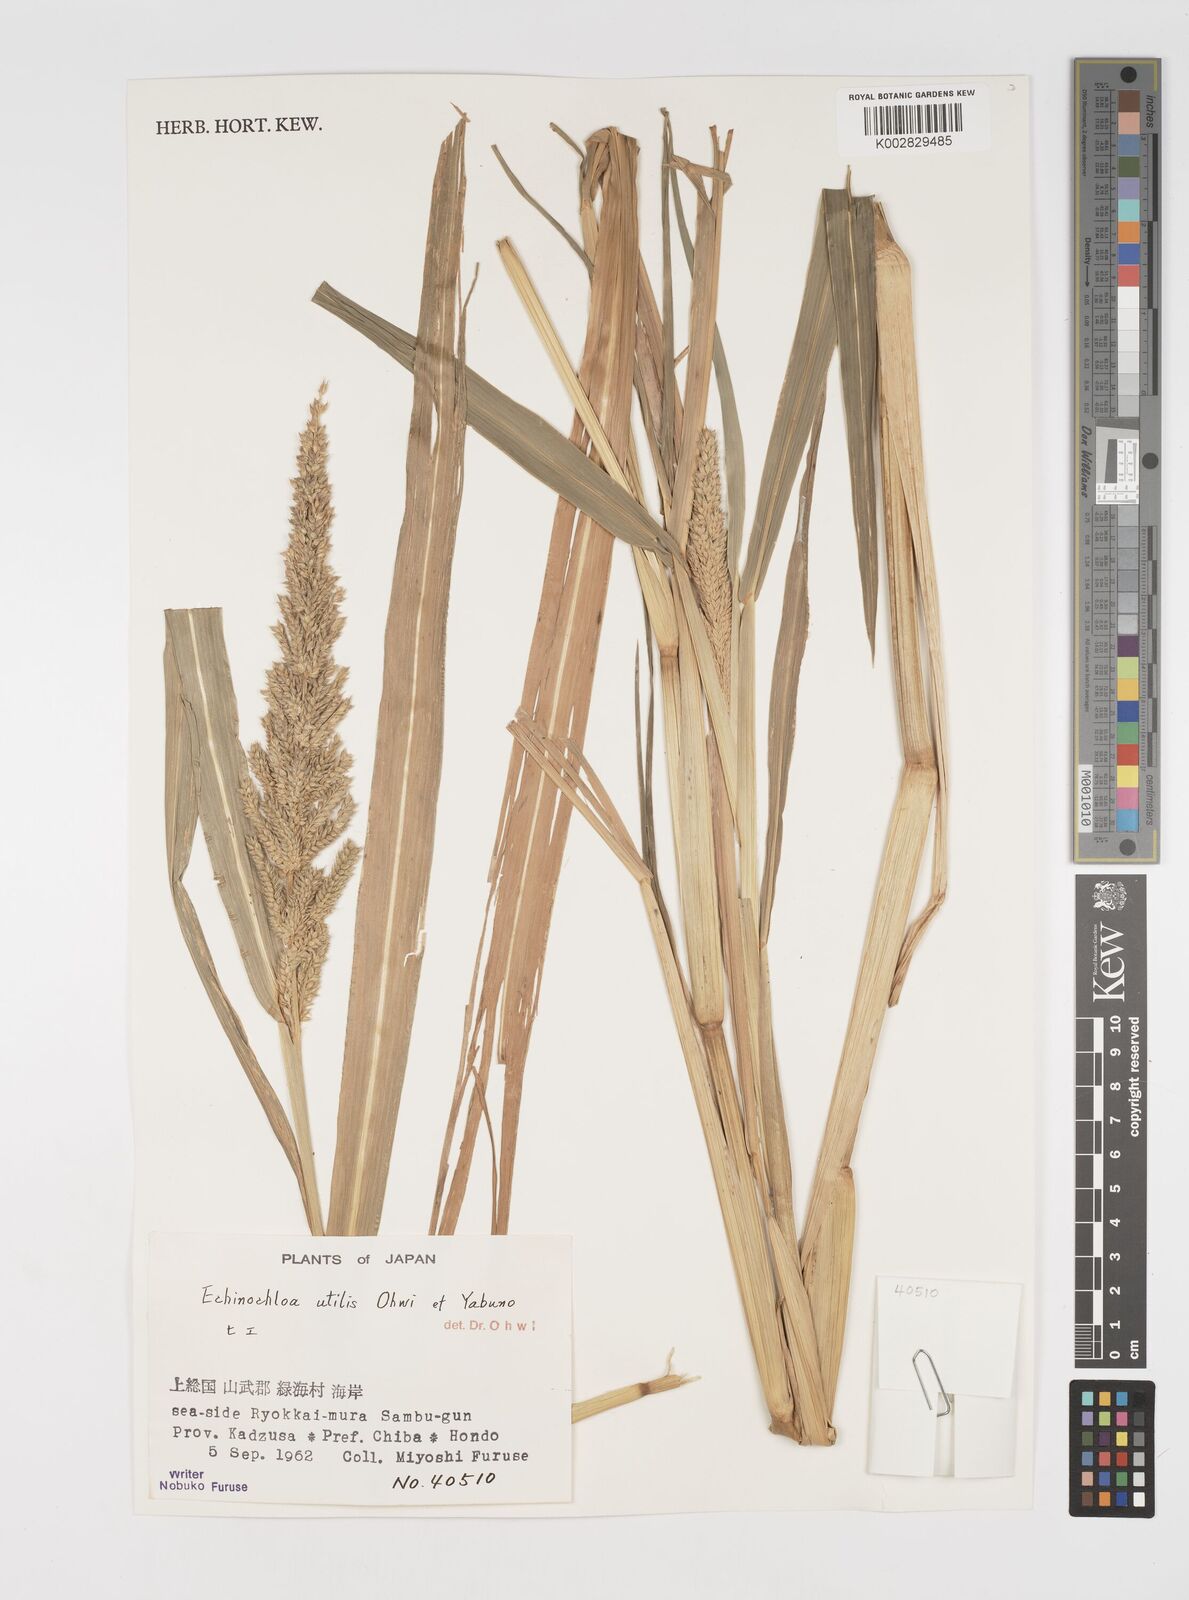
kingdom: Plantae
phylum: Tracheophyta
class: Liliopsida
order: Poales
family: Poaceae
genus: Echinochloa
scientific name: Echinochloa crus-galli
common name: Cockspur
